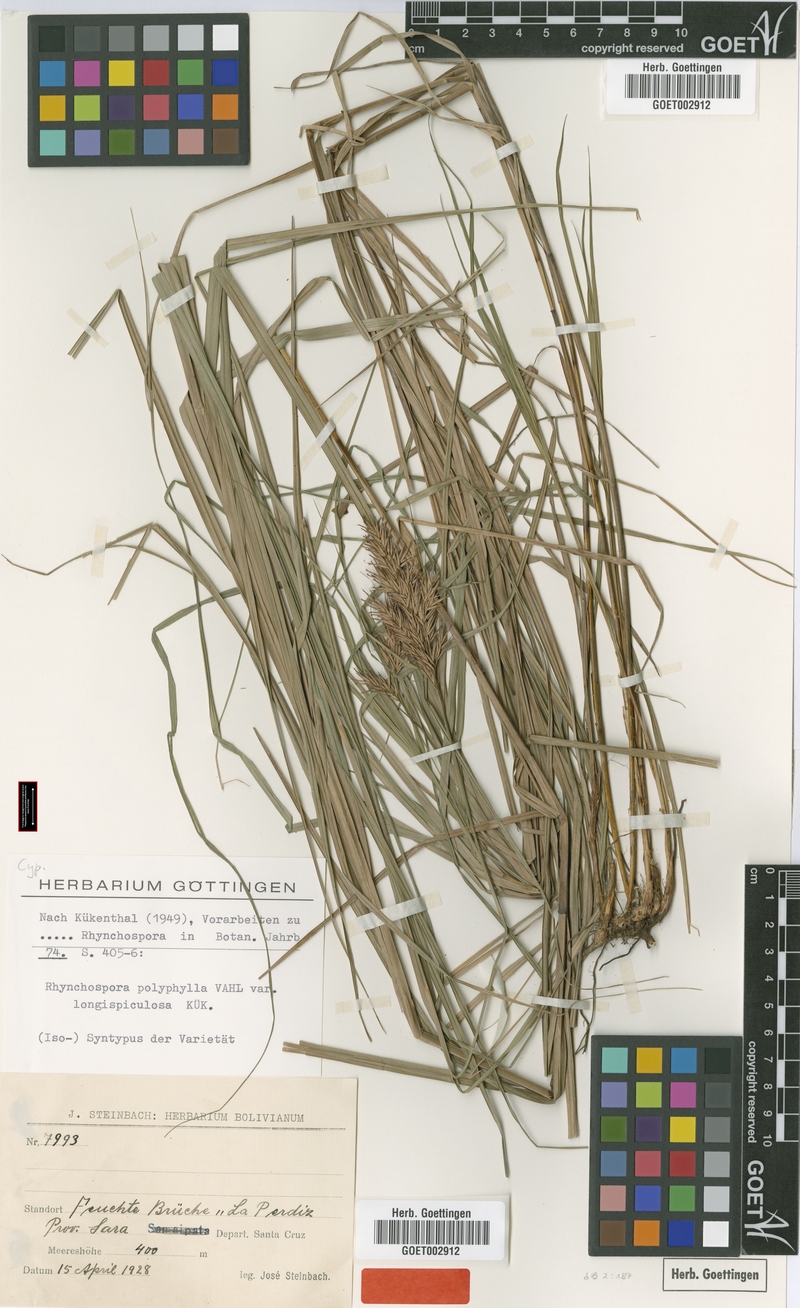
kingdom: Plantae
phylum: Tracheophyta
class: Liliopsida
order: Poales
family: Cyperaceae
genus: Rhynchospora
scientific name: Rhynchospora polyphylla
